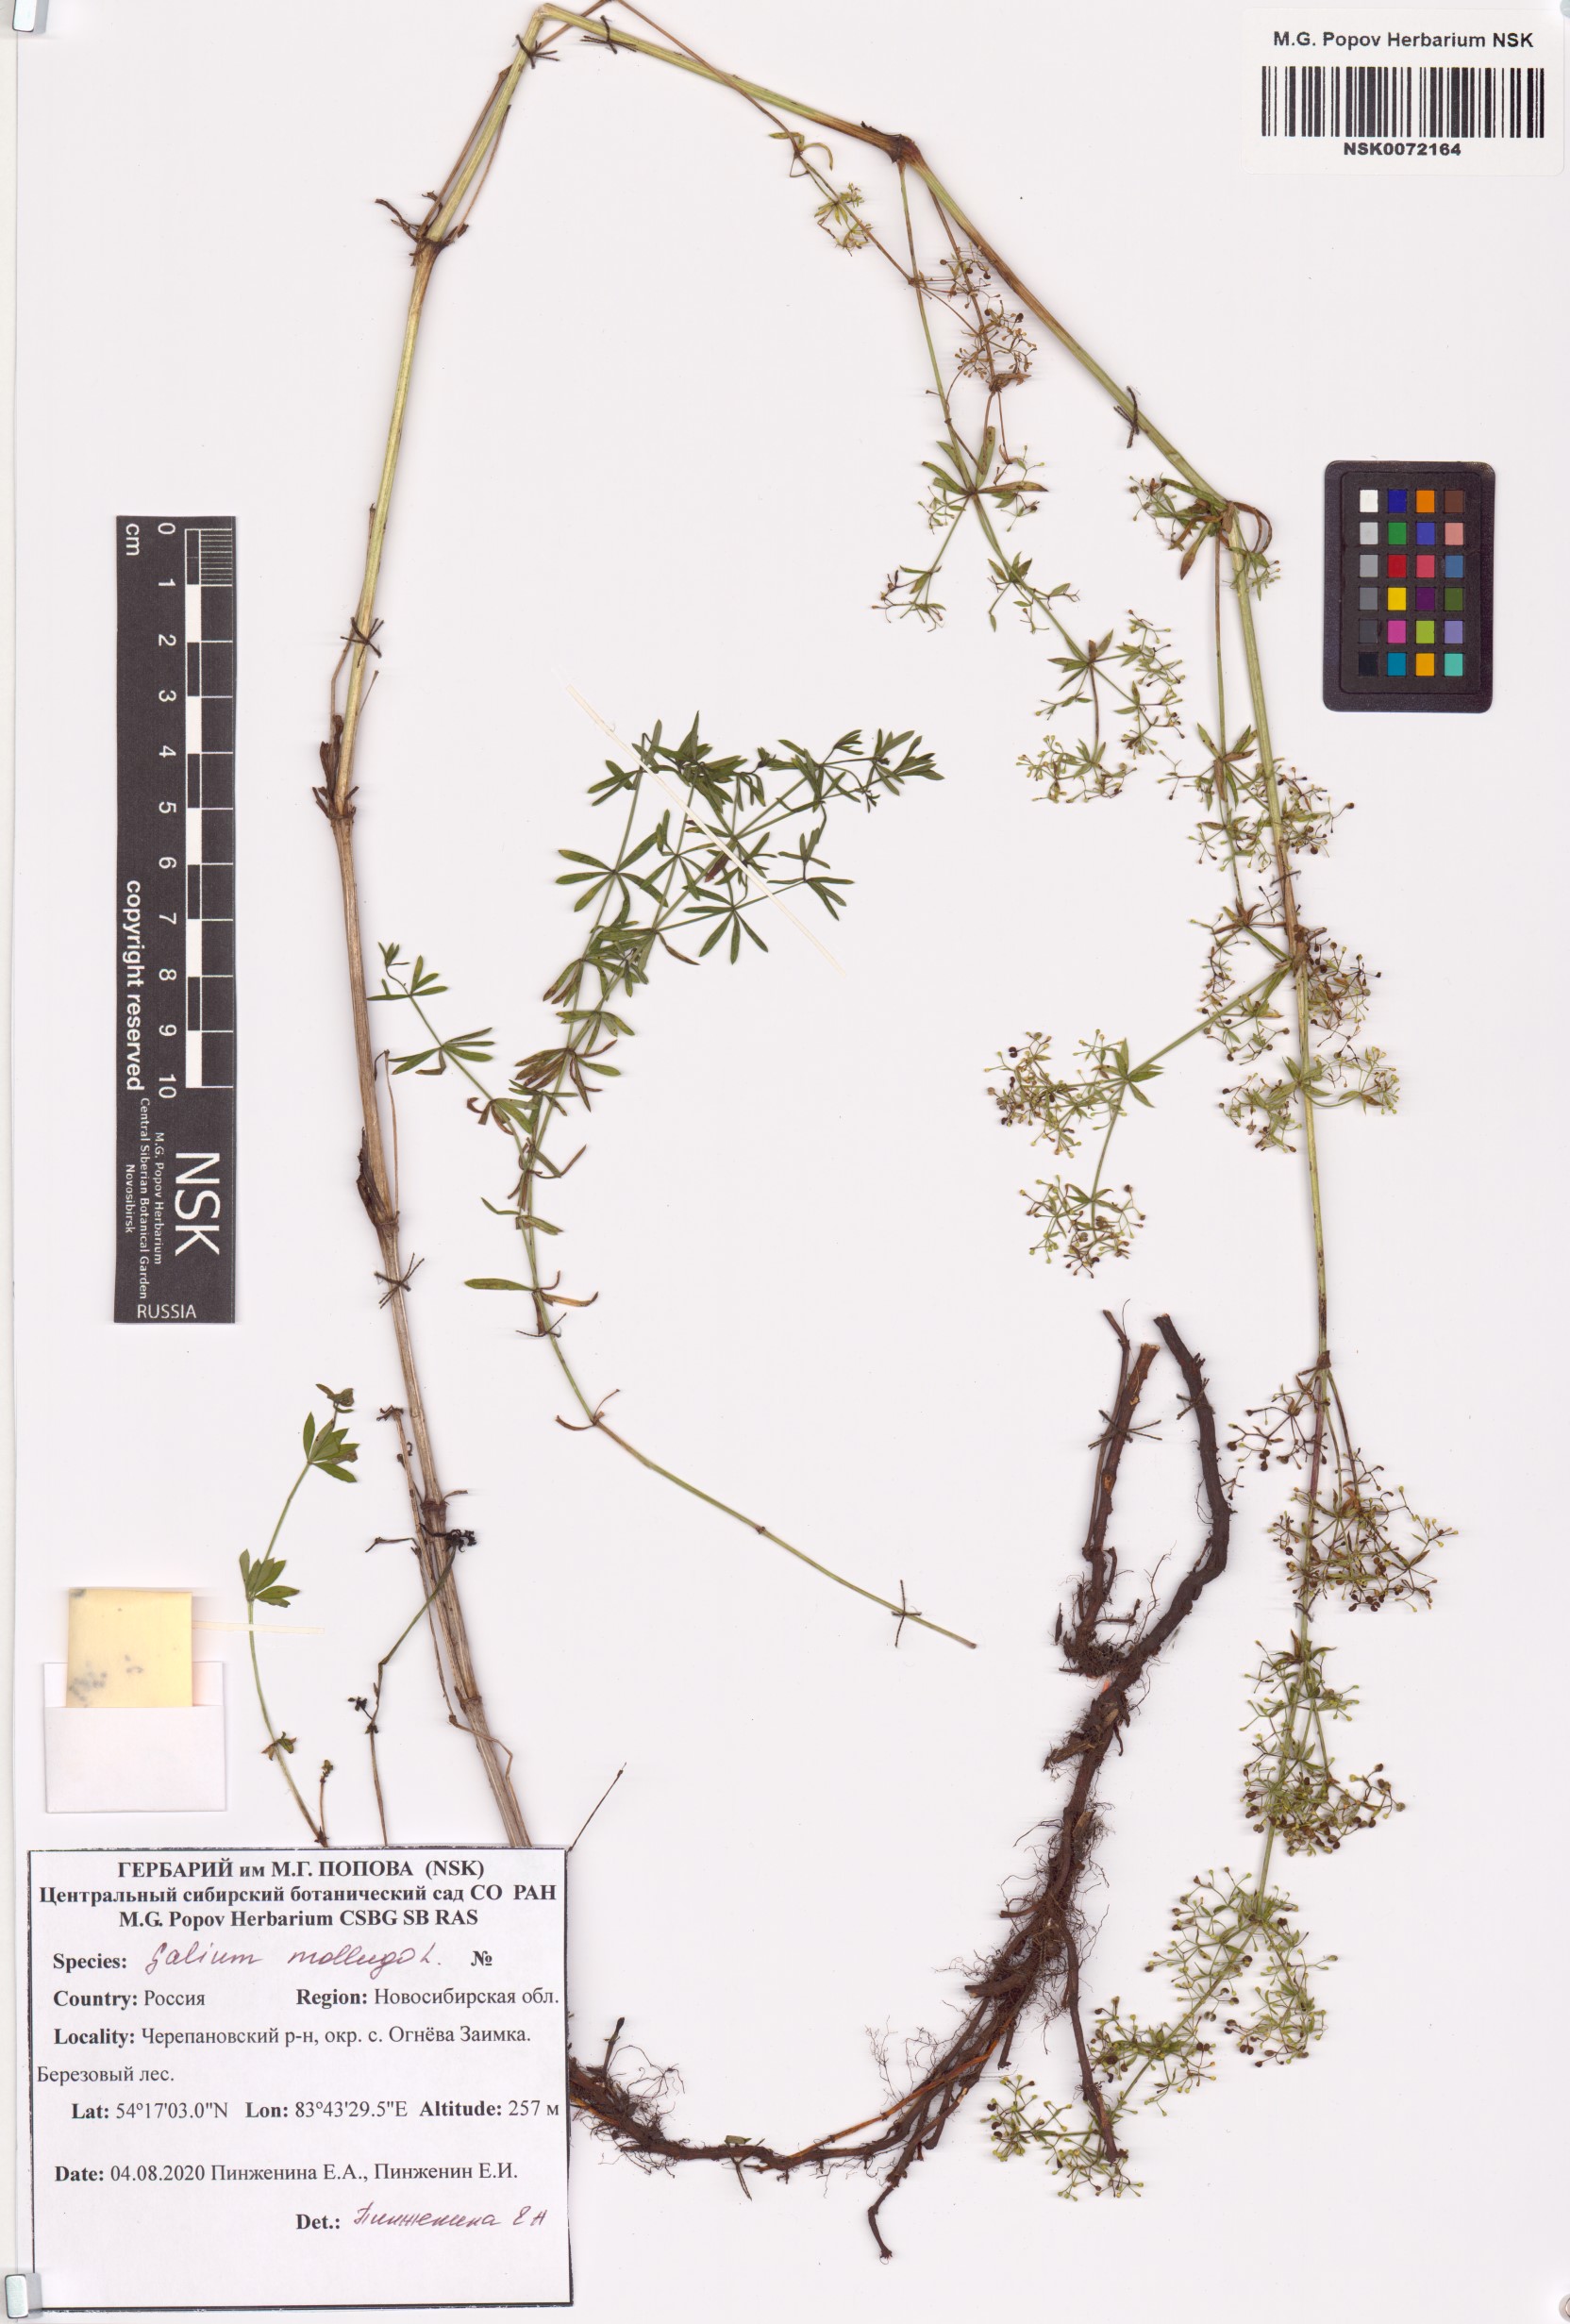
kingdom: Plantae
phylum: Tracheophyta
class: Magnoliopsida
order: Gentianales
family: Rubiaceae
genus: Galium
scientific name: Galium mollugo
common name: Hedge bedstraw
